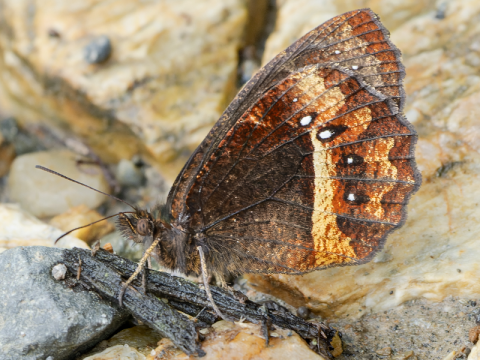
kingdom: Animalia
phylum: Arthropoda
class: Insecta
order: Lepidoptera
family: Nymphalidae
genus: Pedaliodes
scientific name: Pedaliodes phazania
